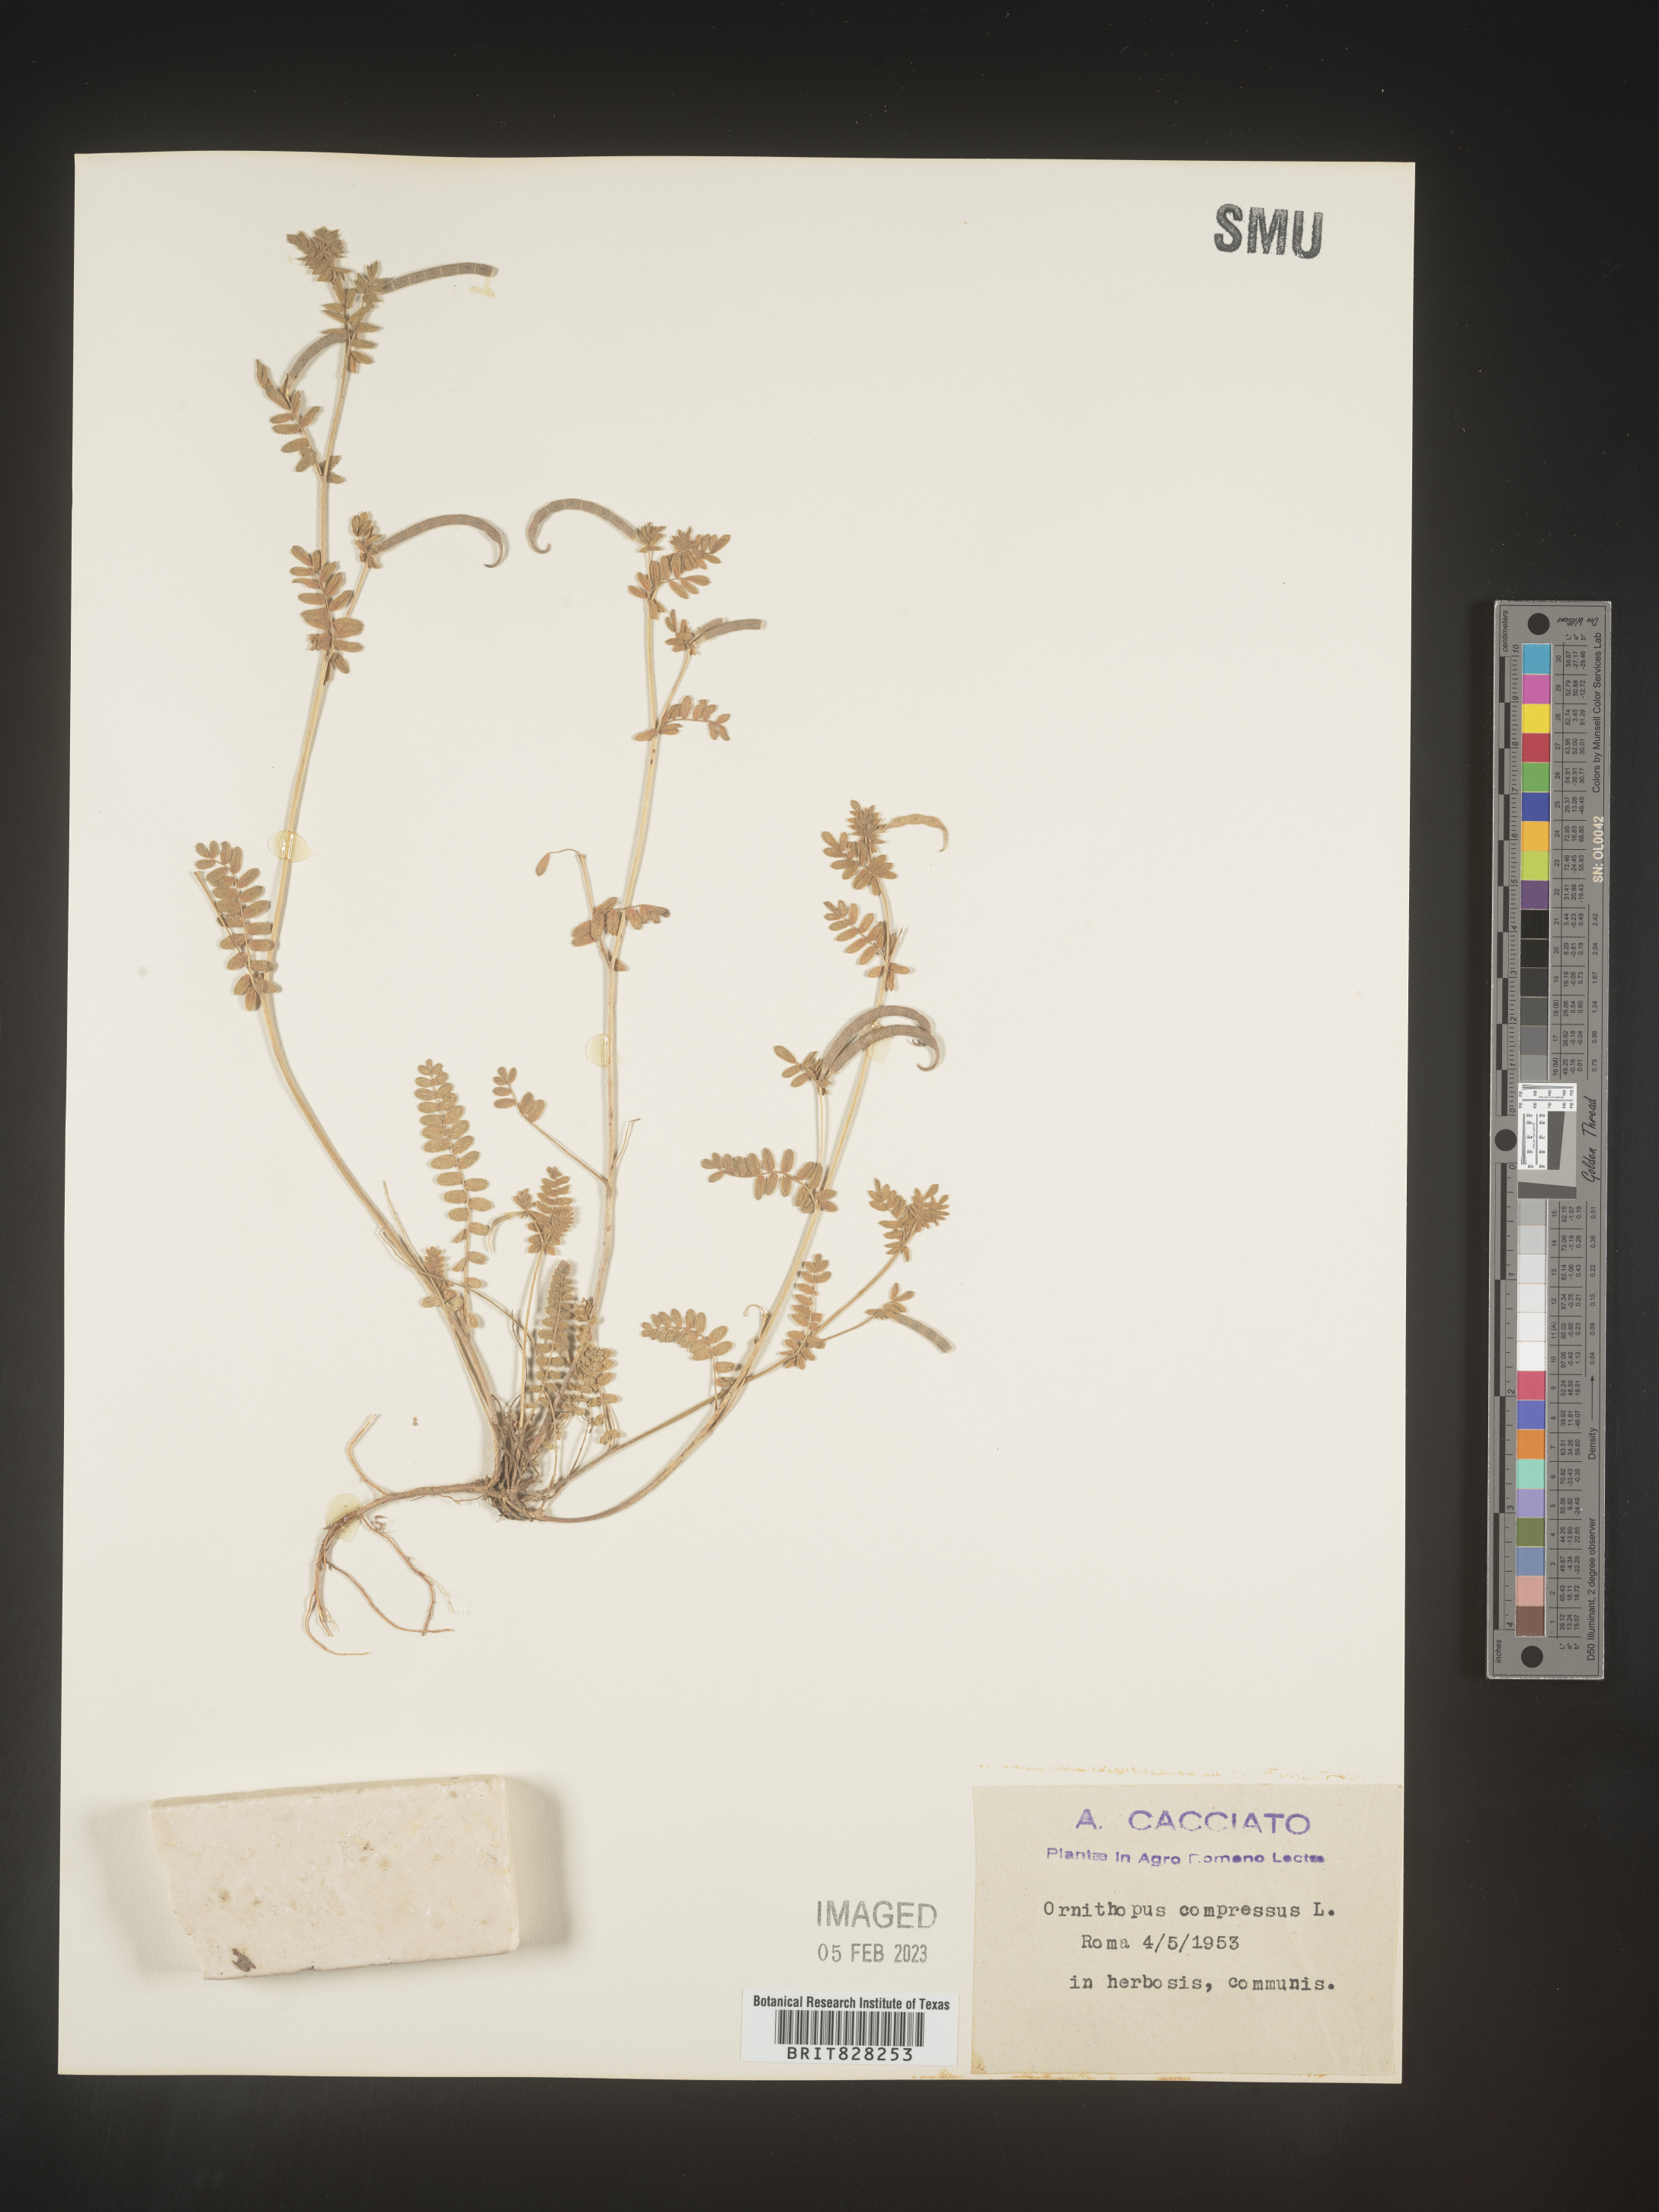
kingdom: Plantae
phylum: Tracheophyta
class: Magnoliopsida
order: Fabales
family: Fabaceae
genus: Ornithopus
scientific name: Ornithopus
